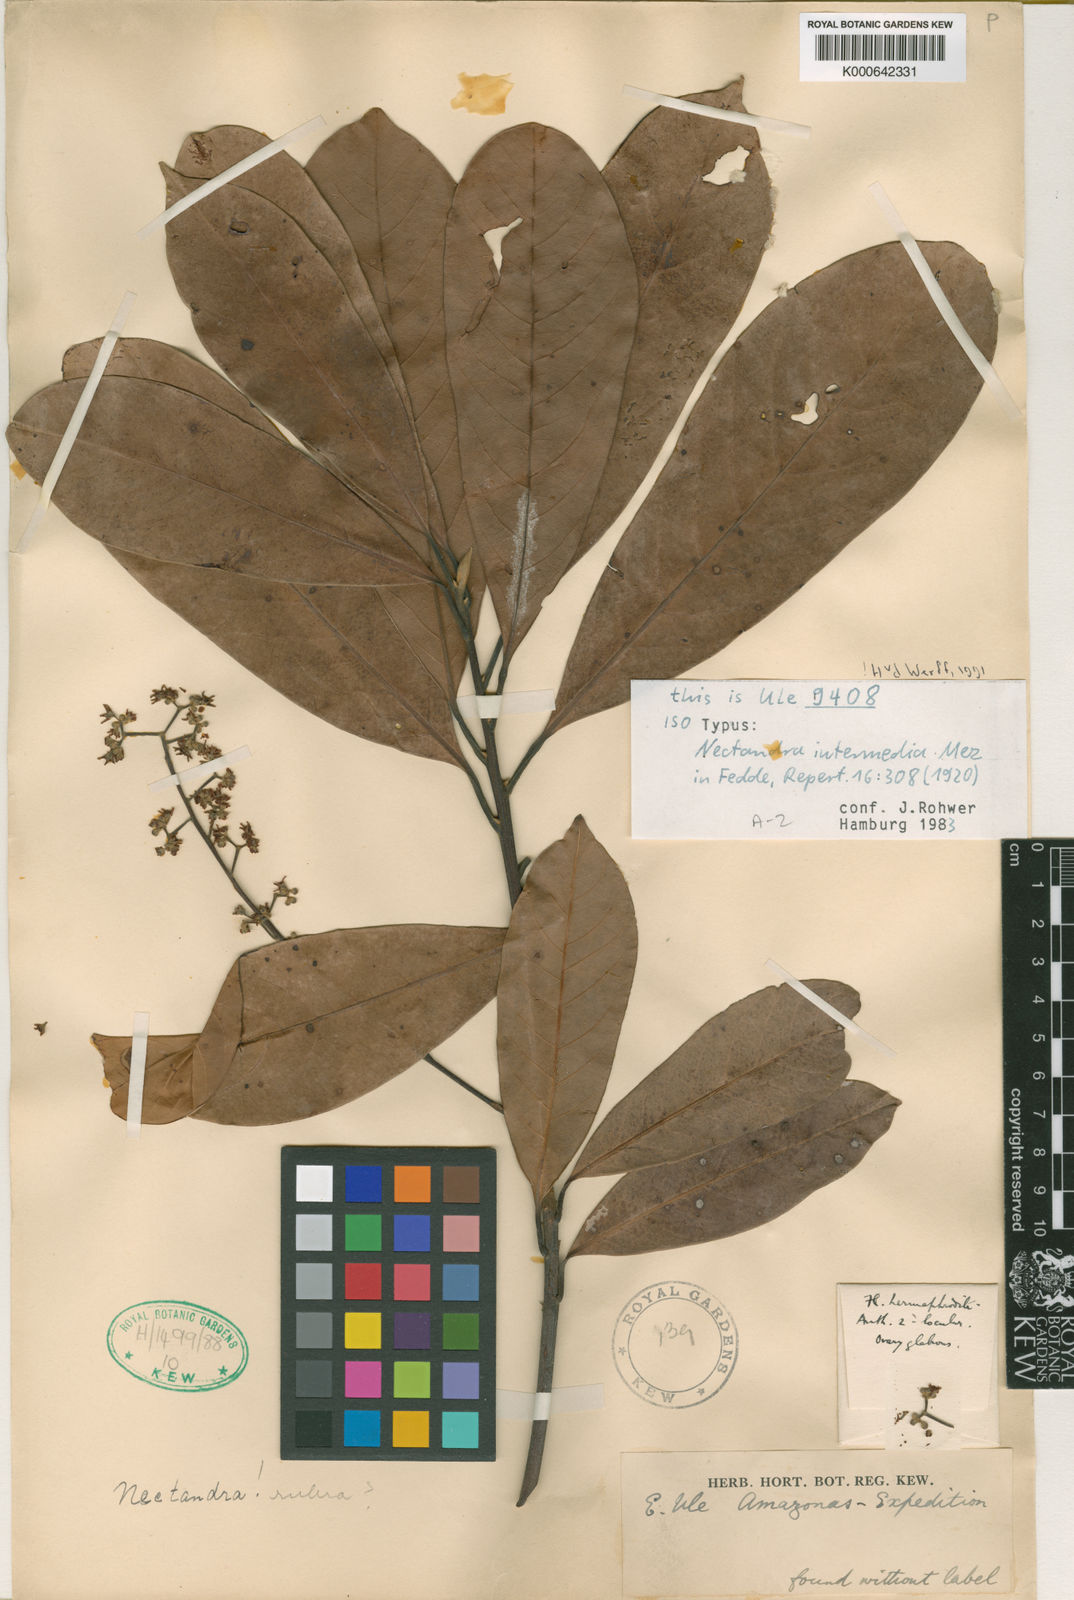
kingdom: Plantae
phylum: Tracheophyta
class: Magnoliopsida
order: Laurales
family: Lauraceae
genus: Pleurothyrium
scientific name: Pleurothyrium intermedium
